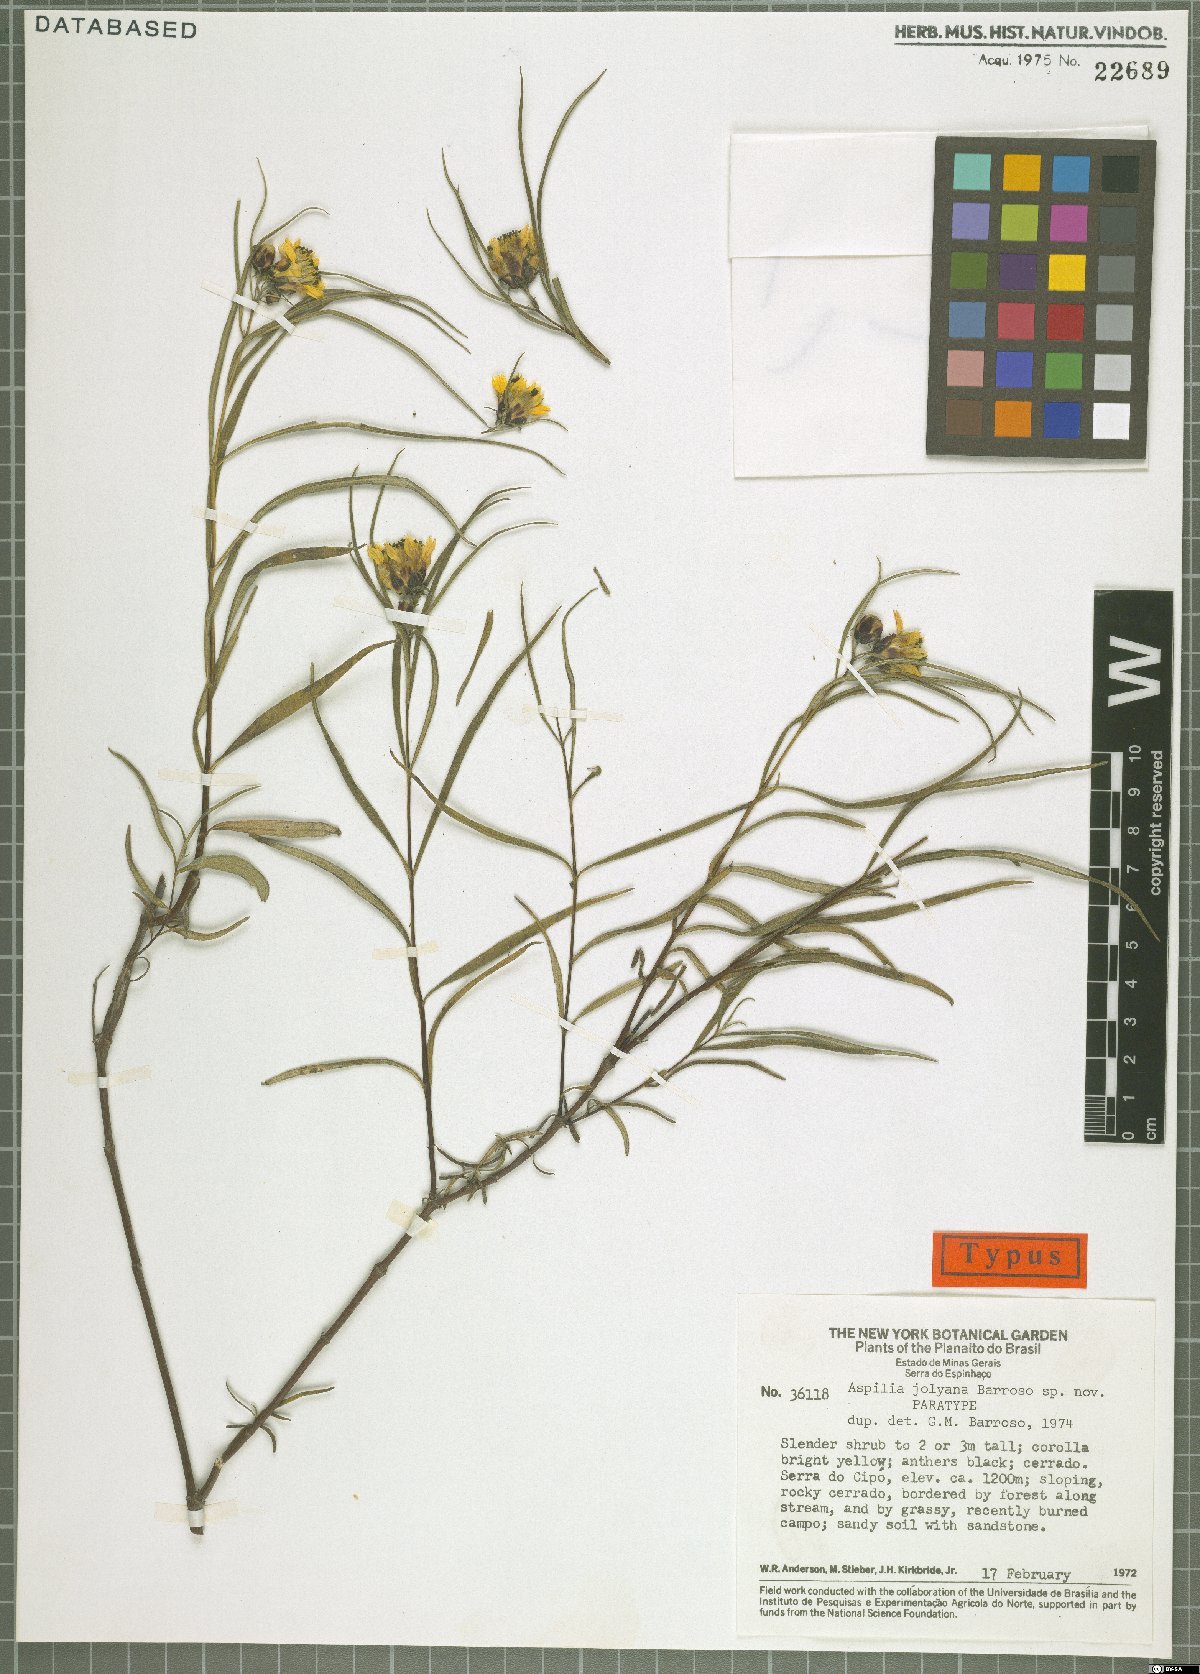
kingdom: Plantae
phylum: Tracheophyta
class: Magnoliopsida
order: Asterales
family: Asteraceae
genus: Aspilia
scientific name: Aspilia jolyana
